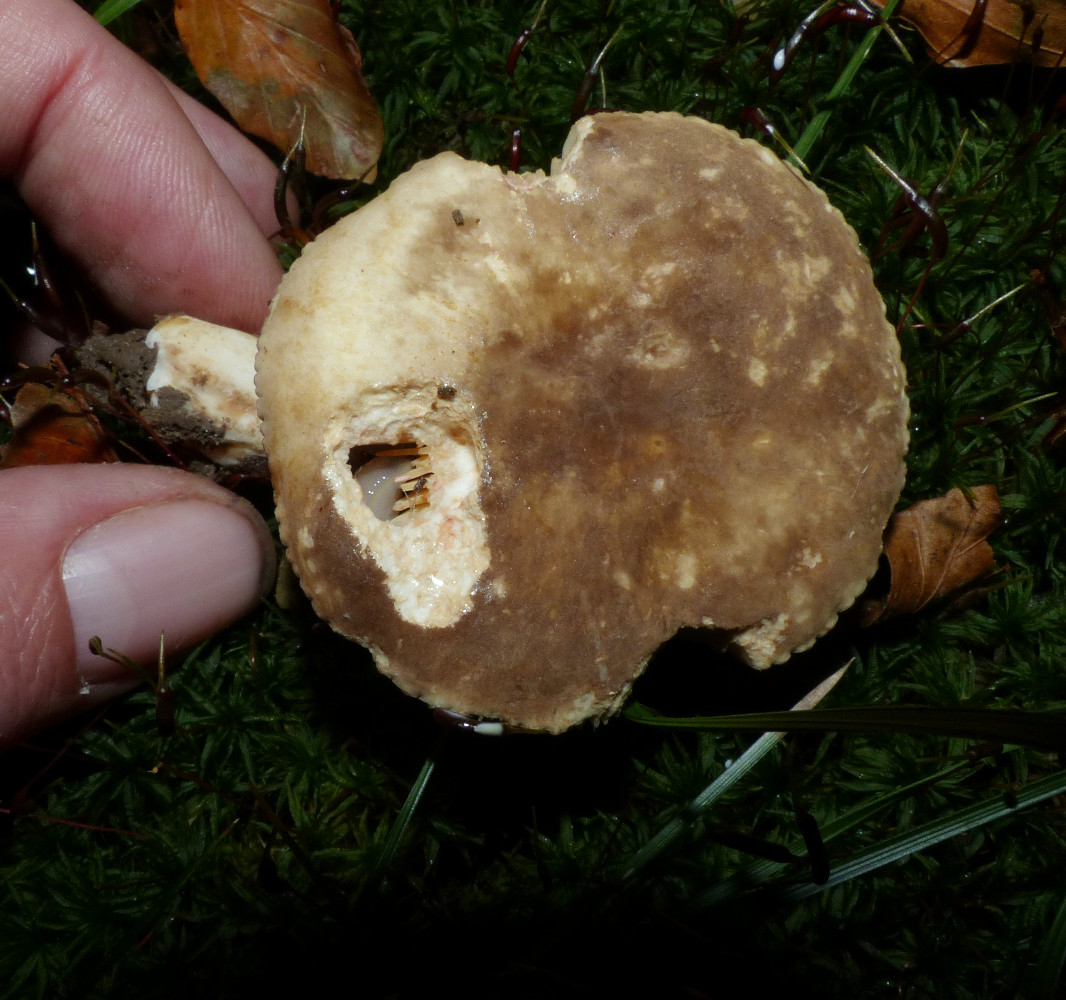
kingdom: Fungi
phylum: Basidiomycota
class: Agaricomycetes
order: Russulales
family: Russulaceae
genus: Lactarius
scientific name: Lactarius ruginosus
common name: gråbrun mælkehat
